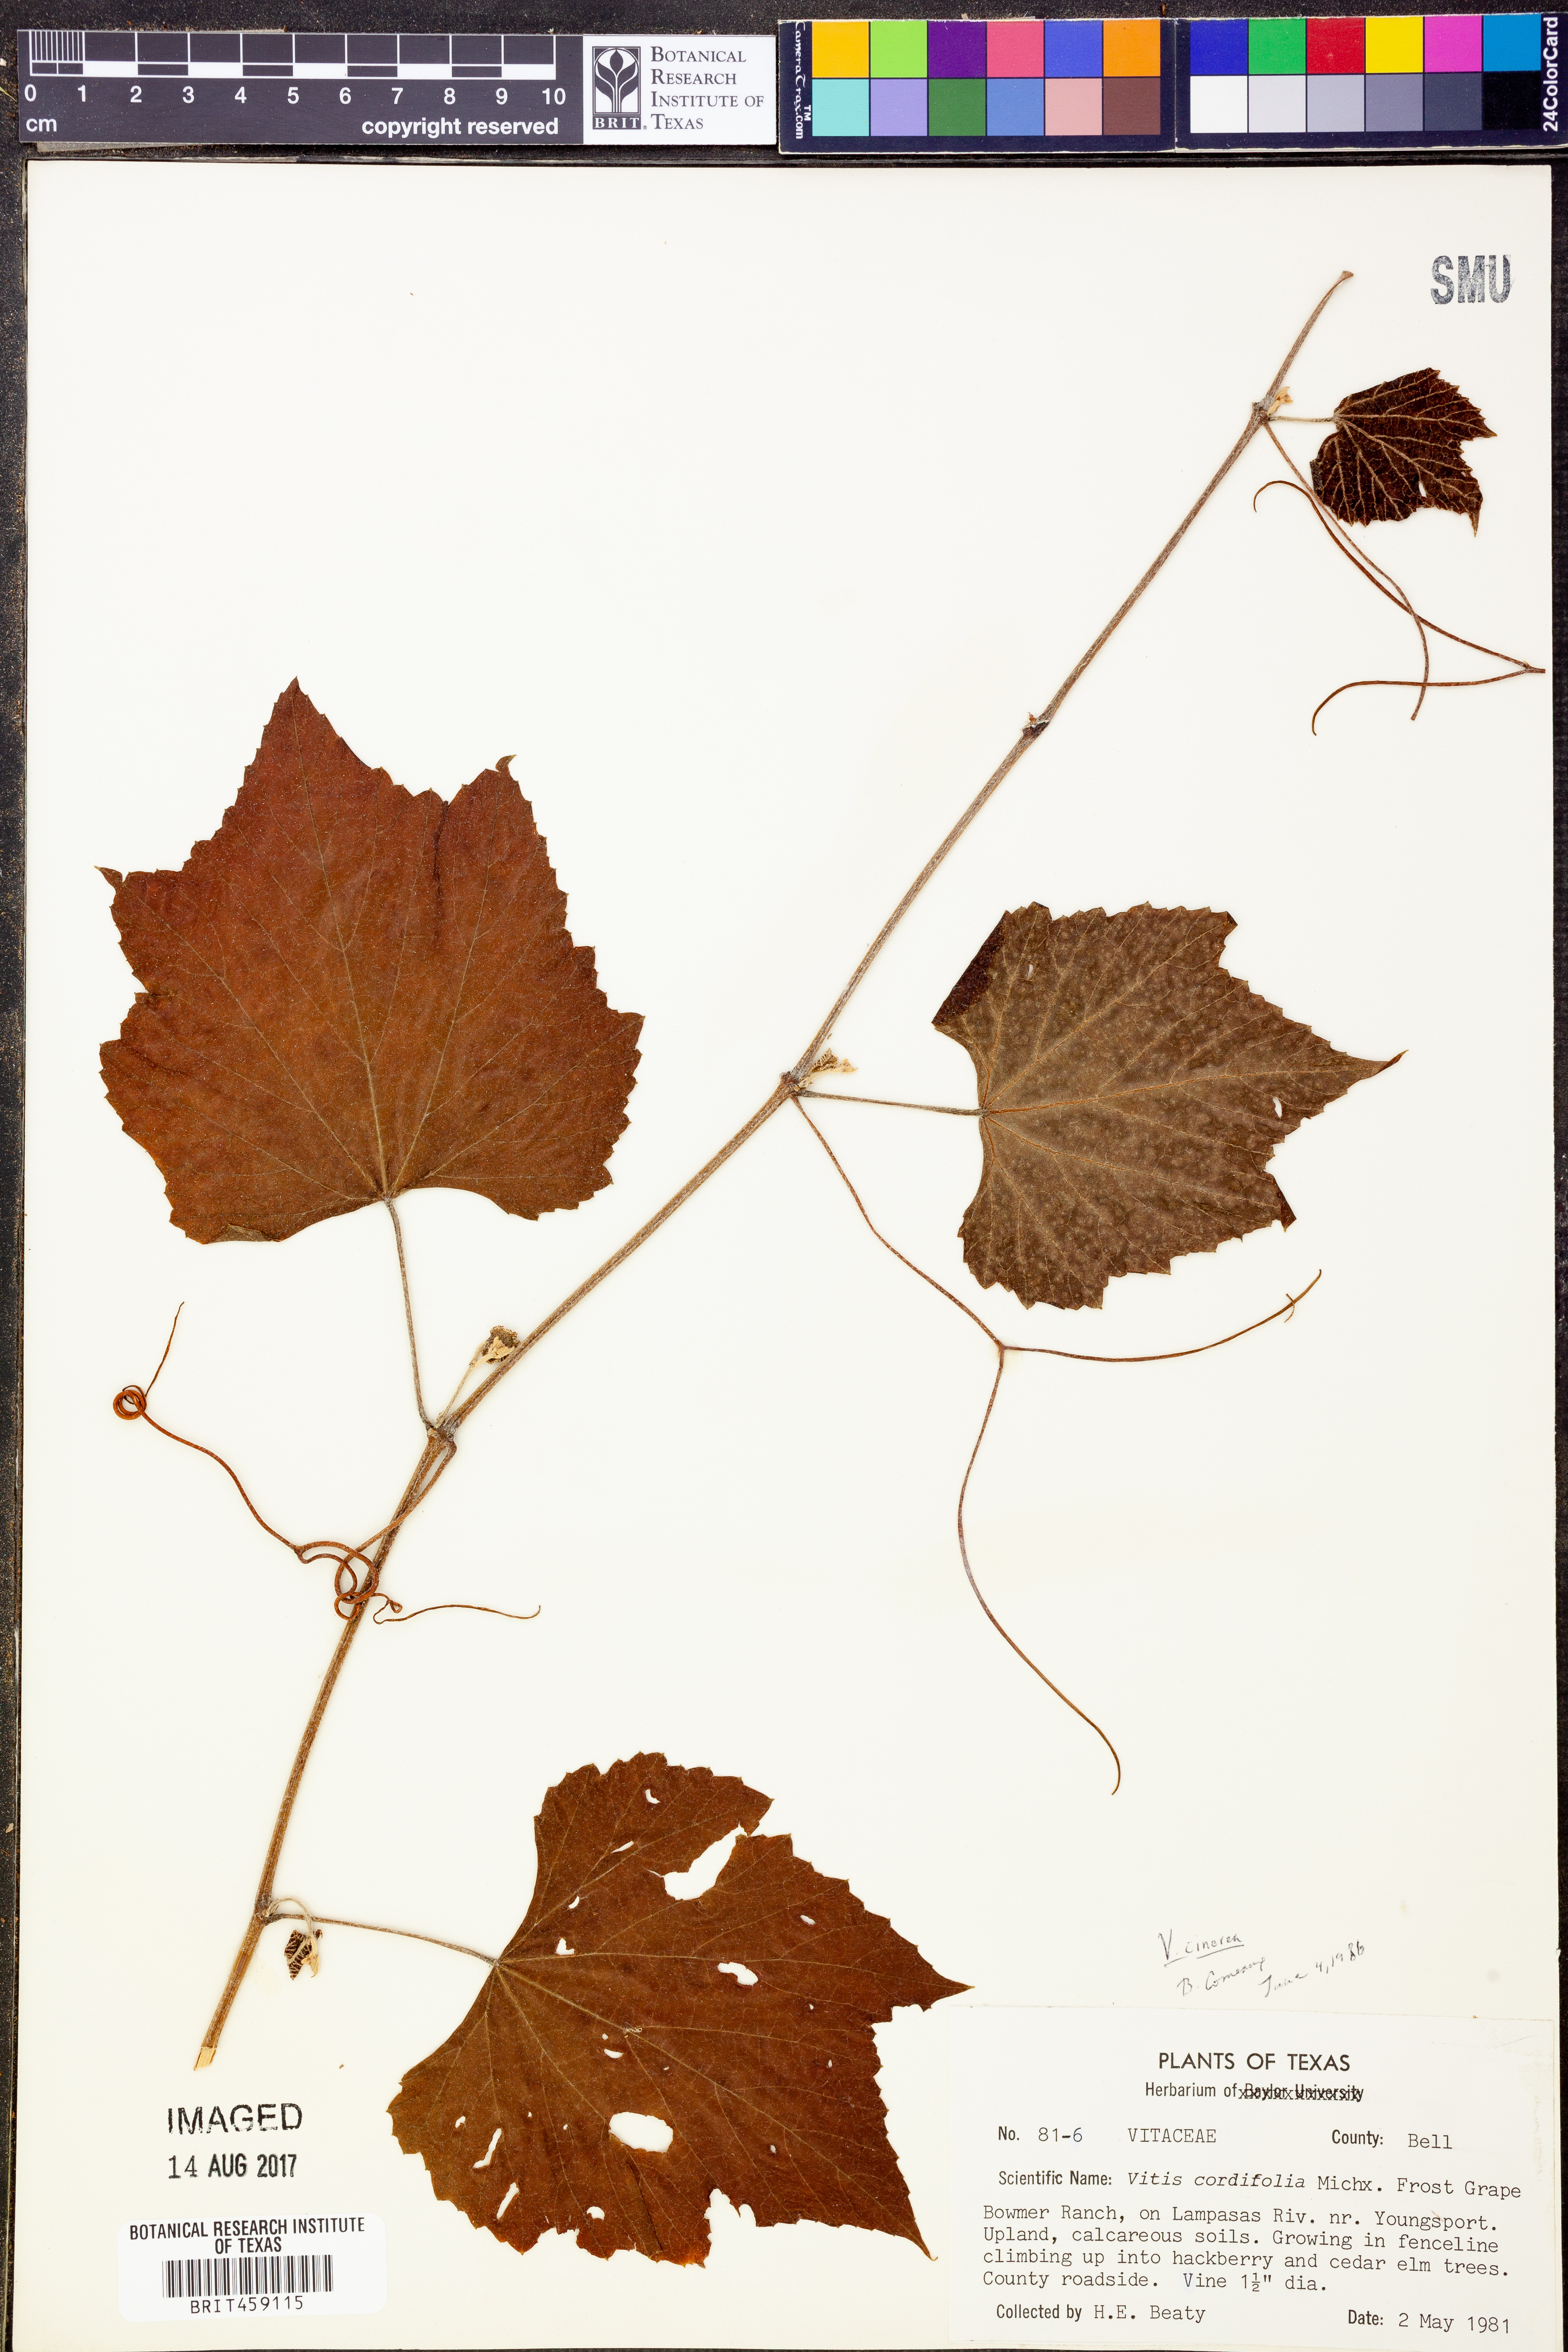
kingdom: Plantae
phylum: Tracheophyta
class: Magnoliopsida
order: Vitales
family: Vitaceae
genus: Vitis
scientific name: Vitis cinerea
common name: Ashy grape
